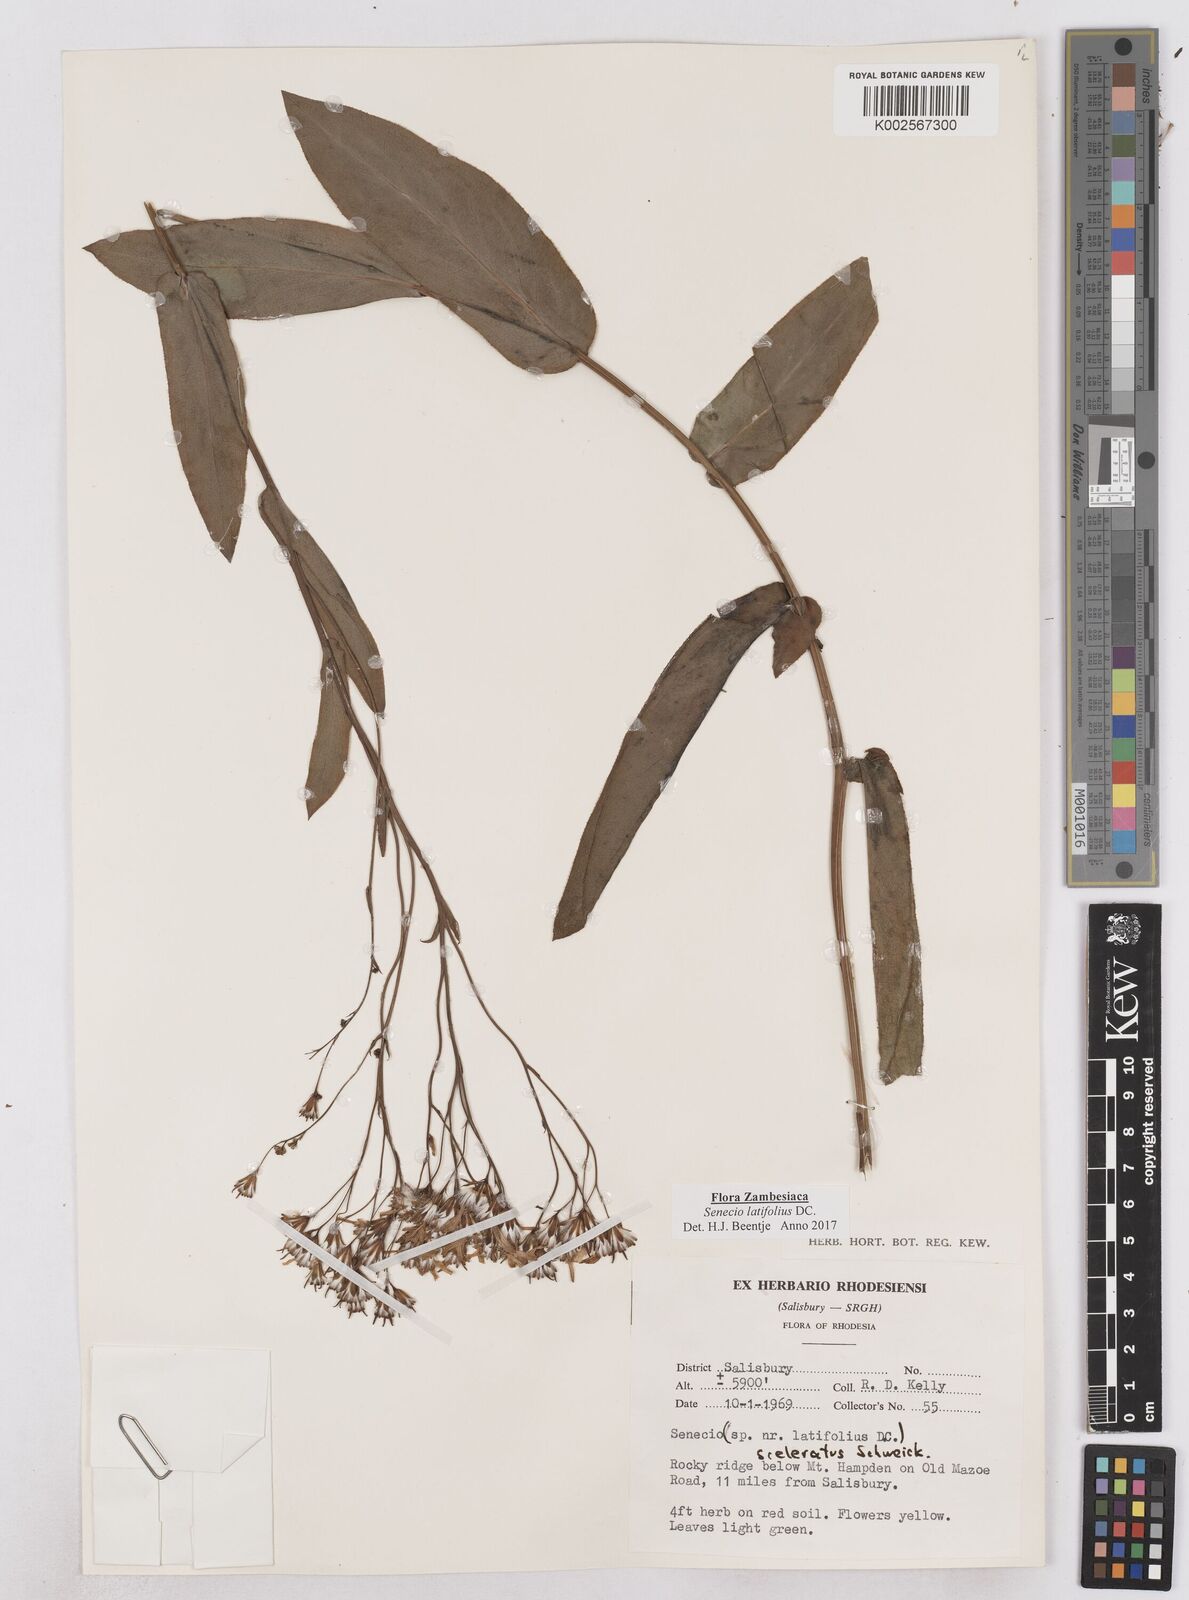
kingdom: Plantae
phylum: Tracheophyta
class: Magnoliopsida
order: Asterales
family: Asteraceae
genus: Senecio
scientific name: Senecio latifolius
